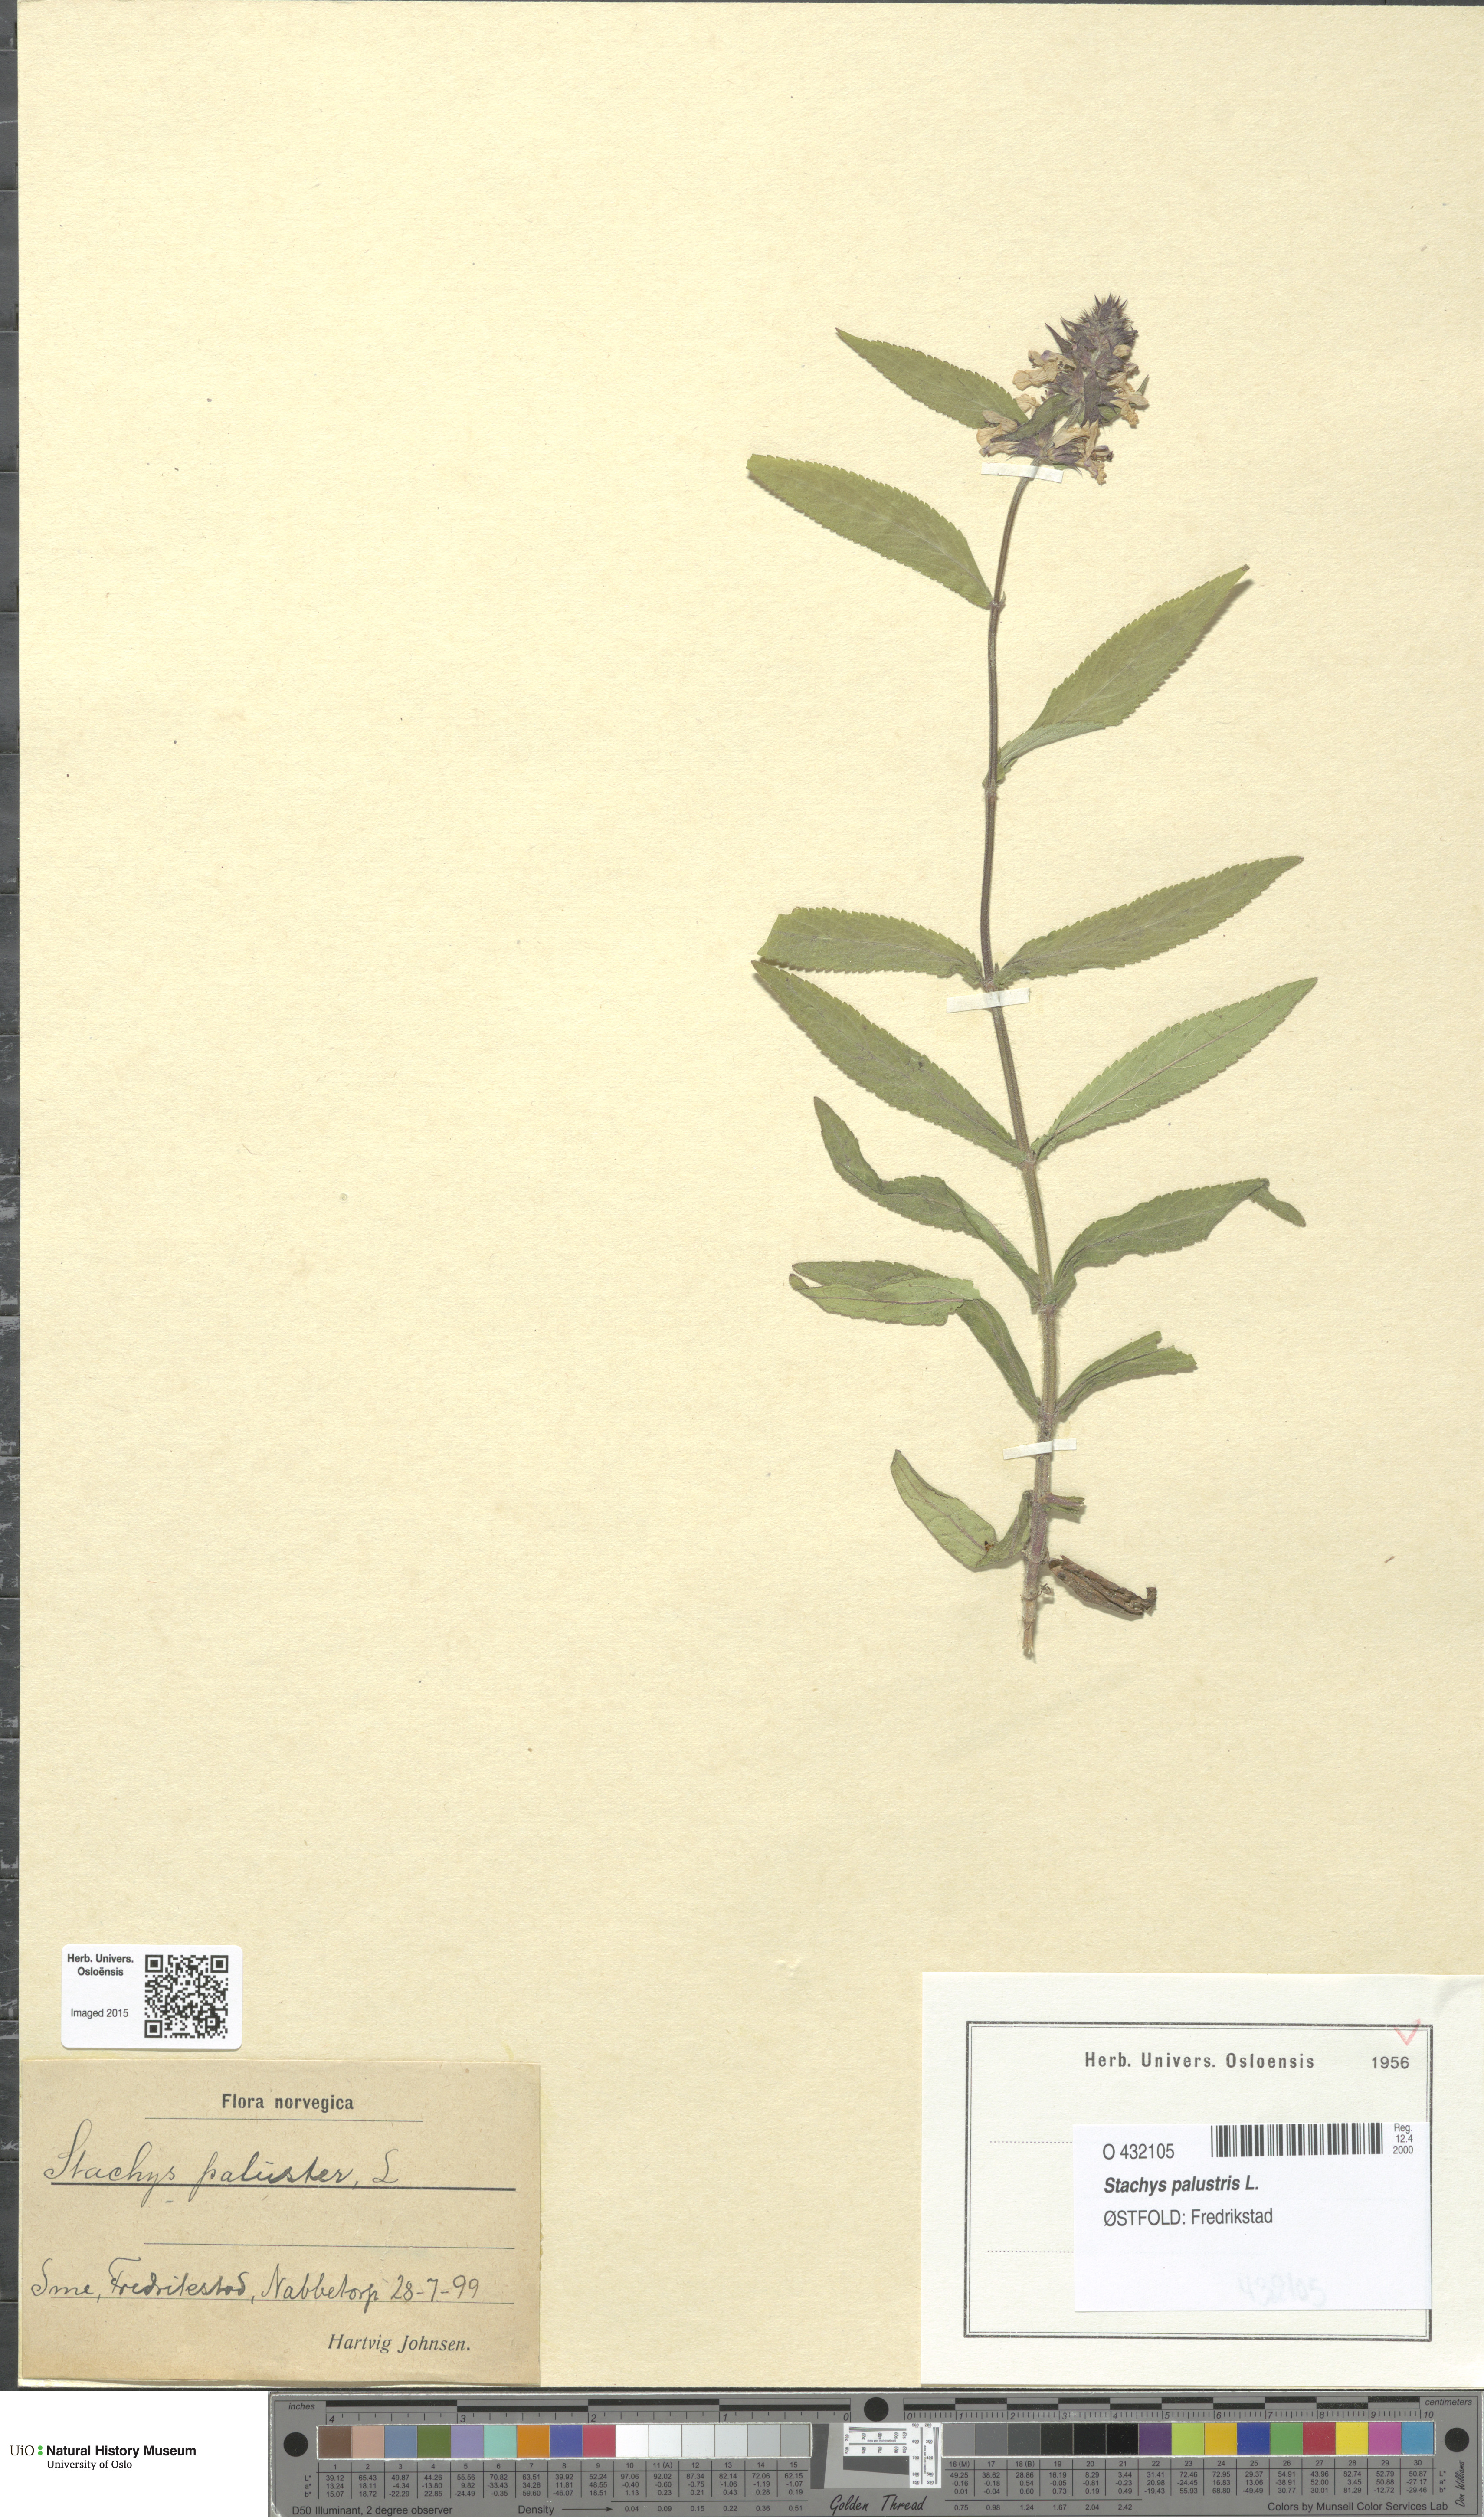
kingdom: Plantae
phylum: Tracheophyta
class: Magnoliopsida
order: Lamiales
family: Lamiaceae
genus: Stachys
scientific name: Stachys palustris
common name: Marsh woundwort
